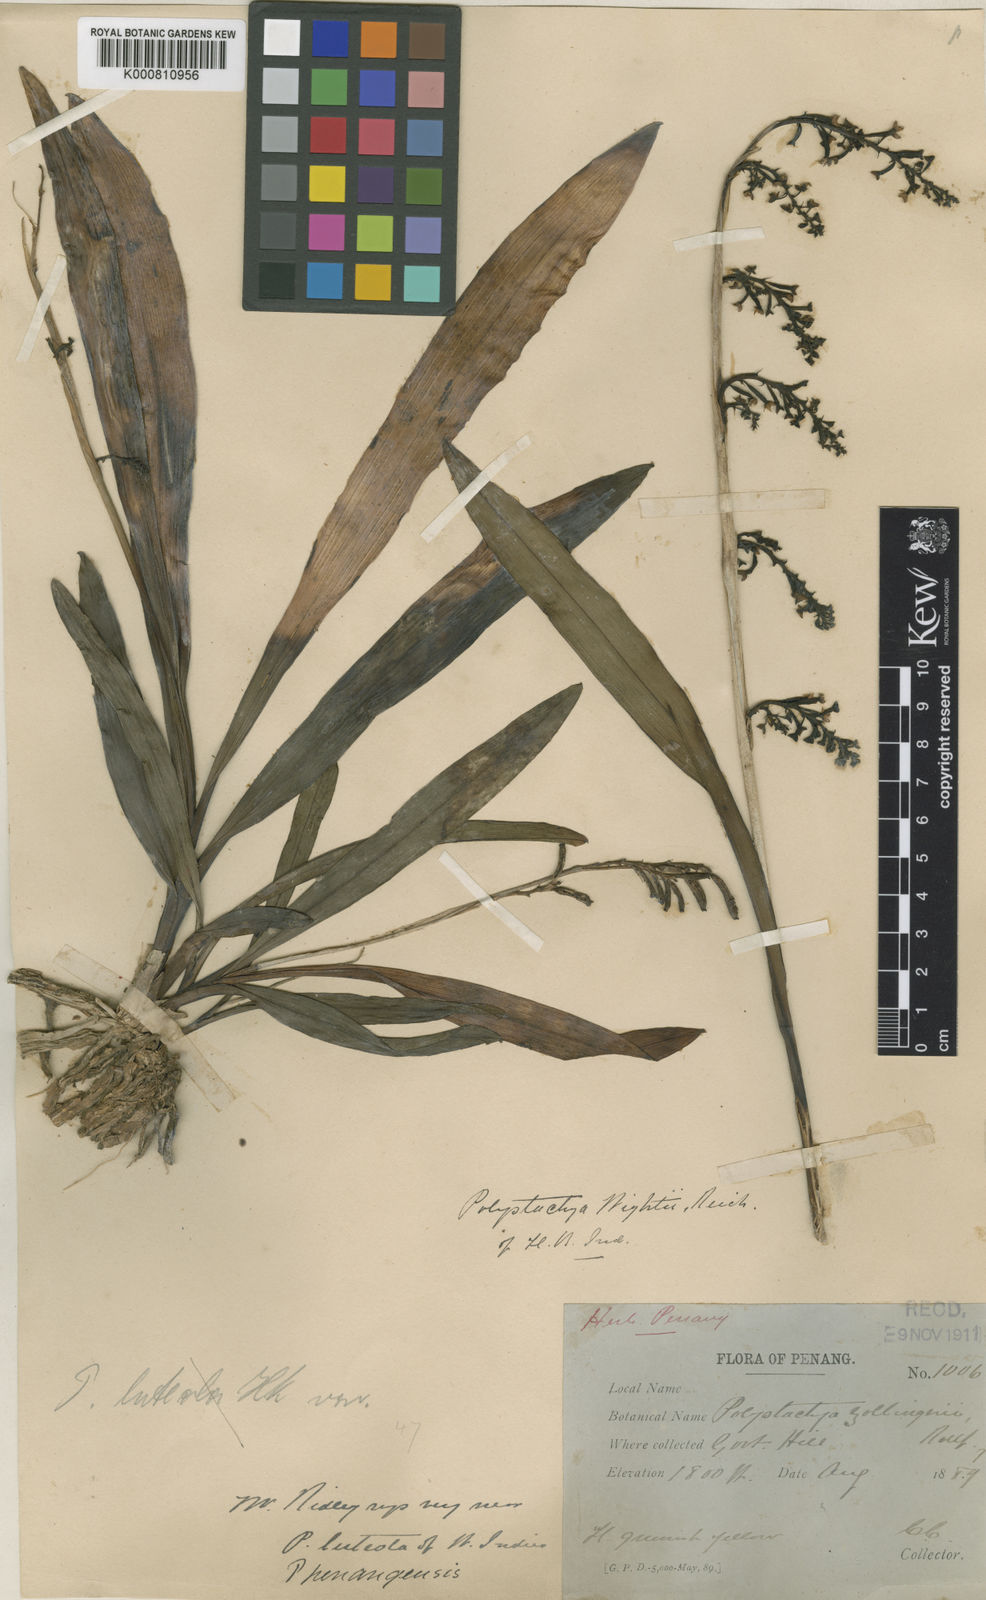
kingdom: Plantae
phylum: Tracheophyta
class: Liliopsida
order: Asparagales
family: Orchidaceae
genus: Polystachya
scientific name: Polystachya concreta
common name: Greater yellowspike orchid
